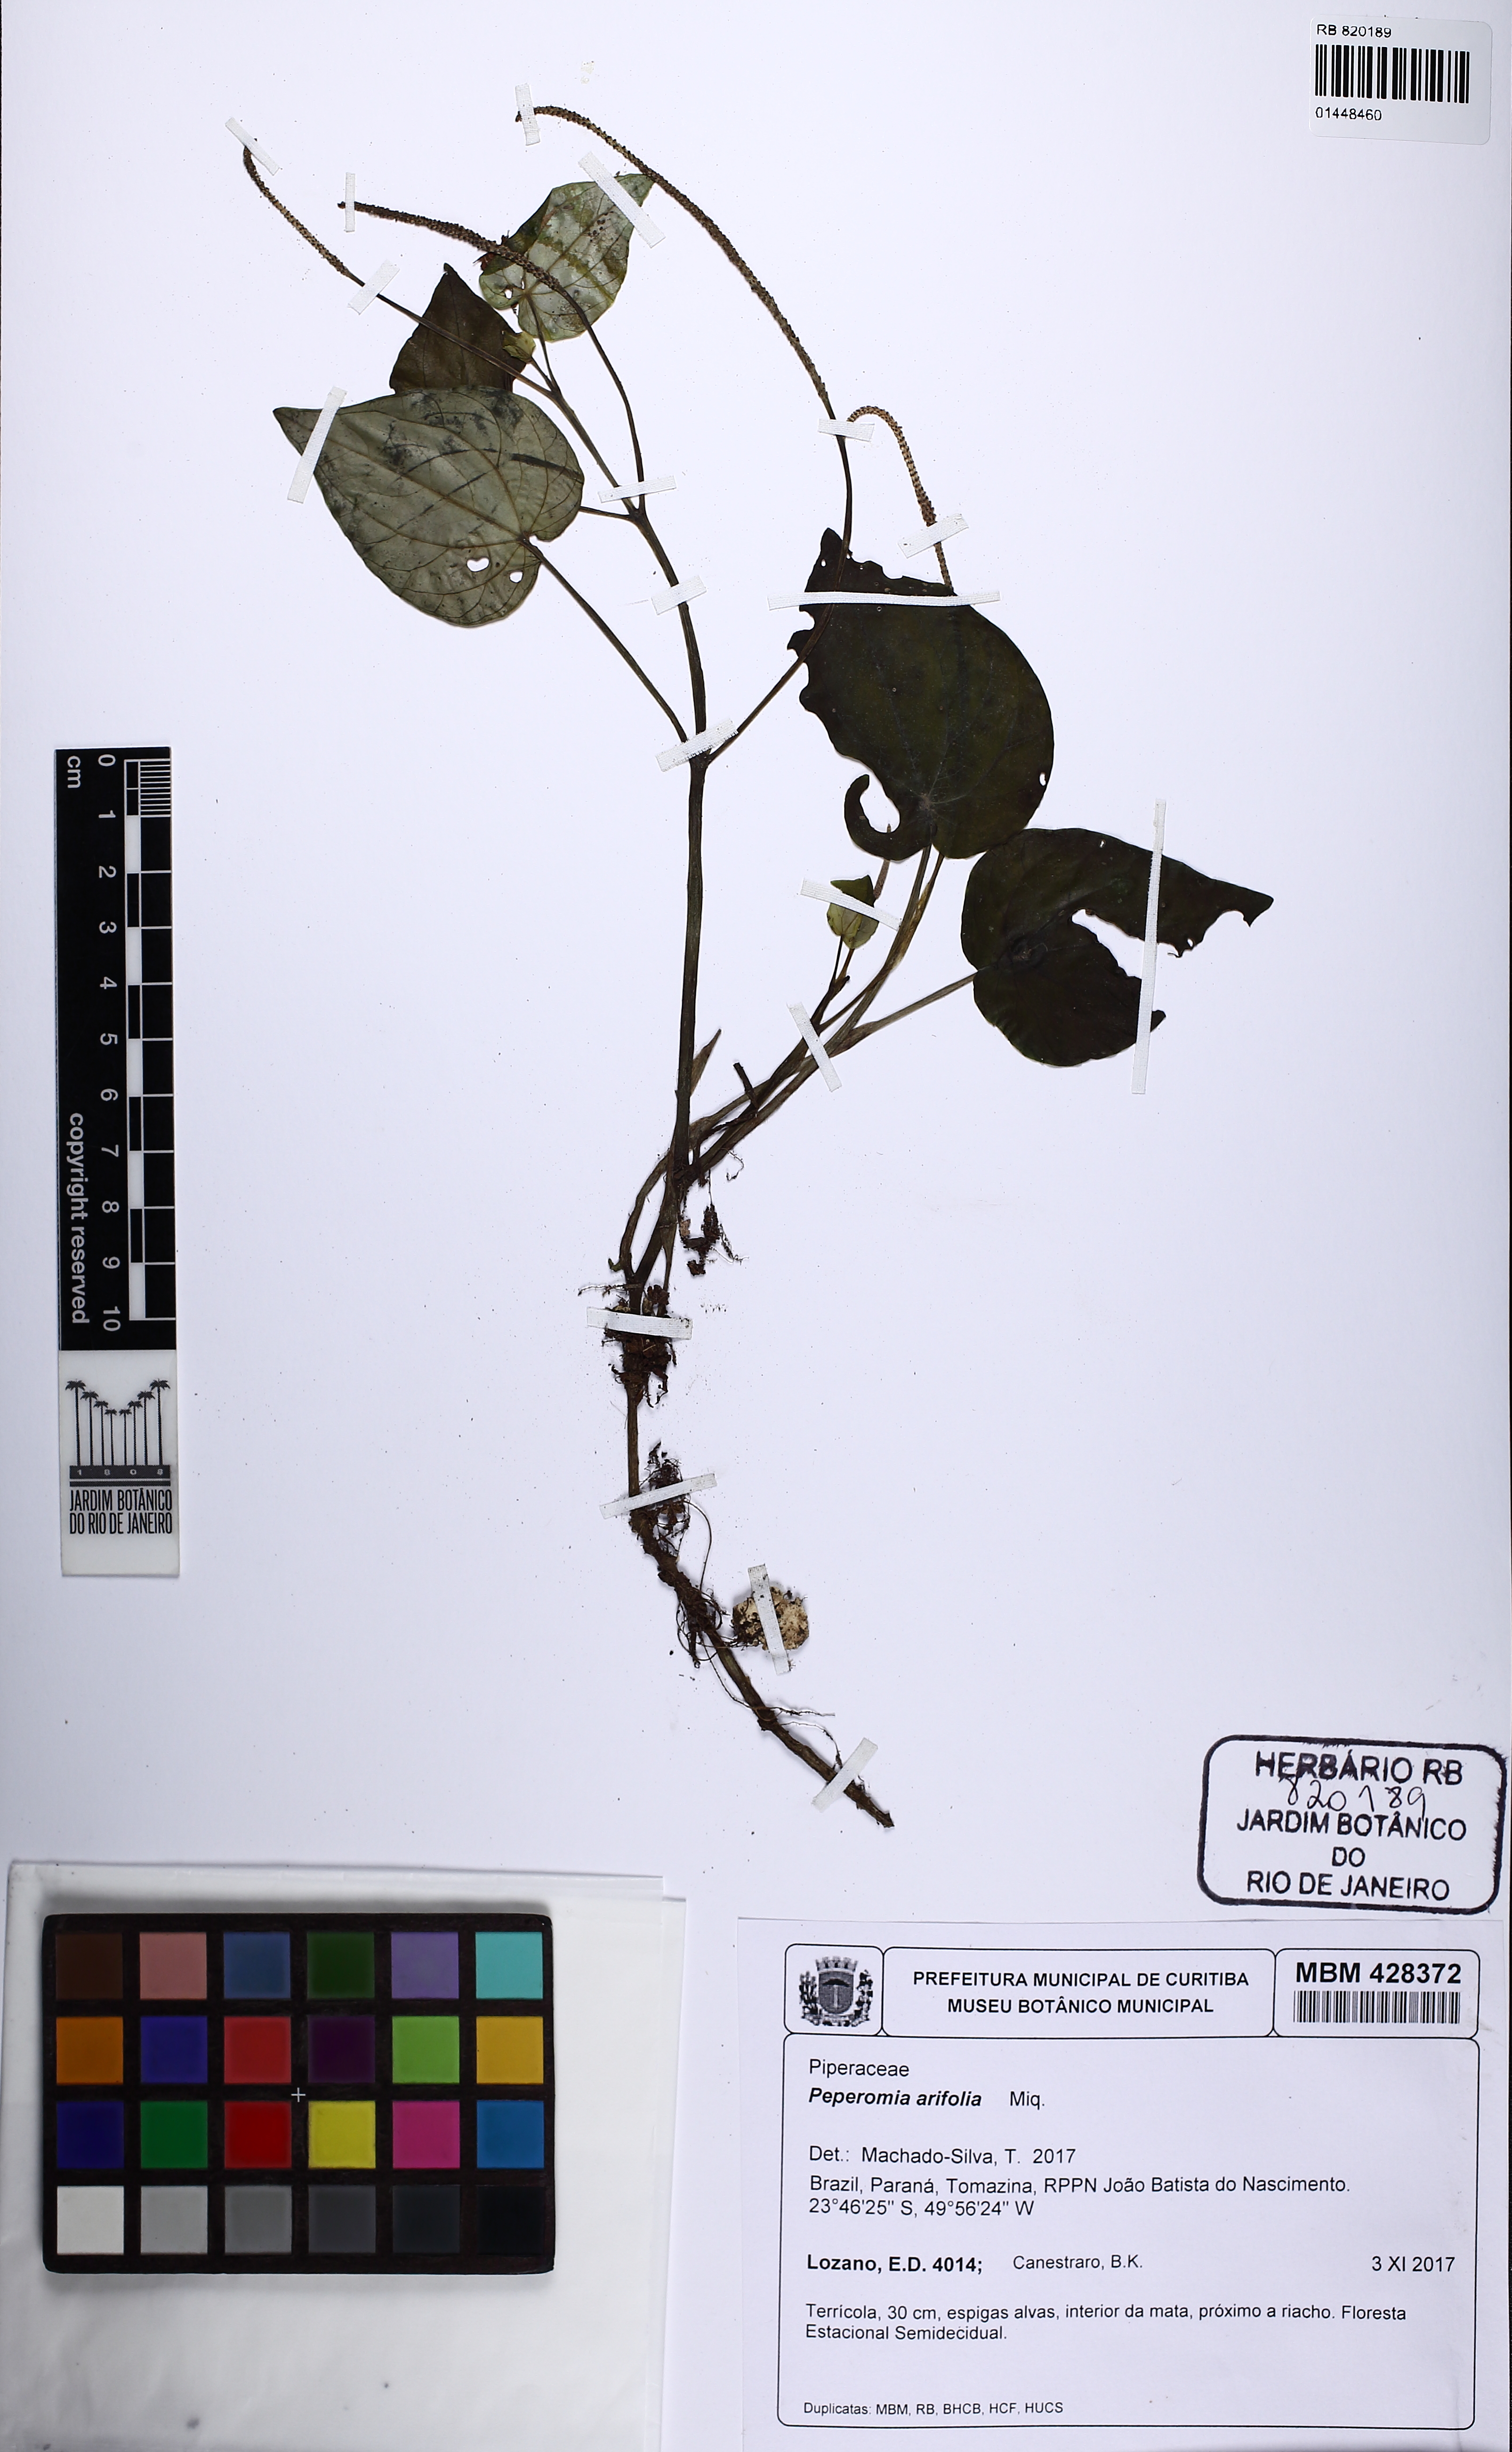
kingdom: Plantae
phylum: Tracheophyta
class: Magnoliopsida
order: Piperales
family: Piperaceae
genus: Peperomia
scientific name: Peperomia arifolia
